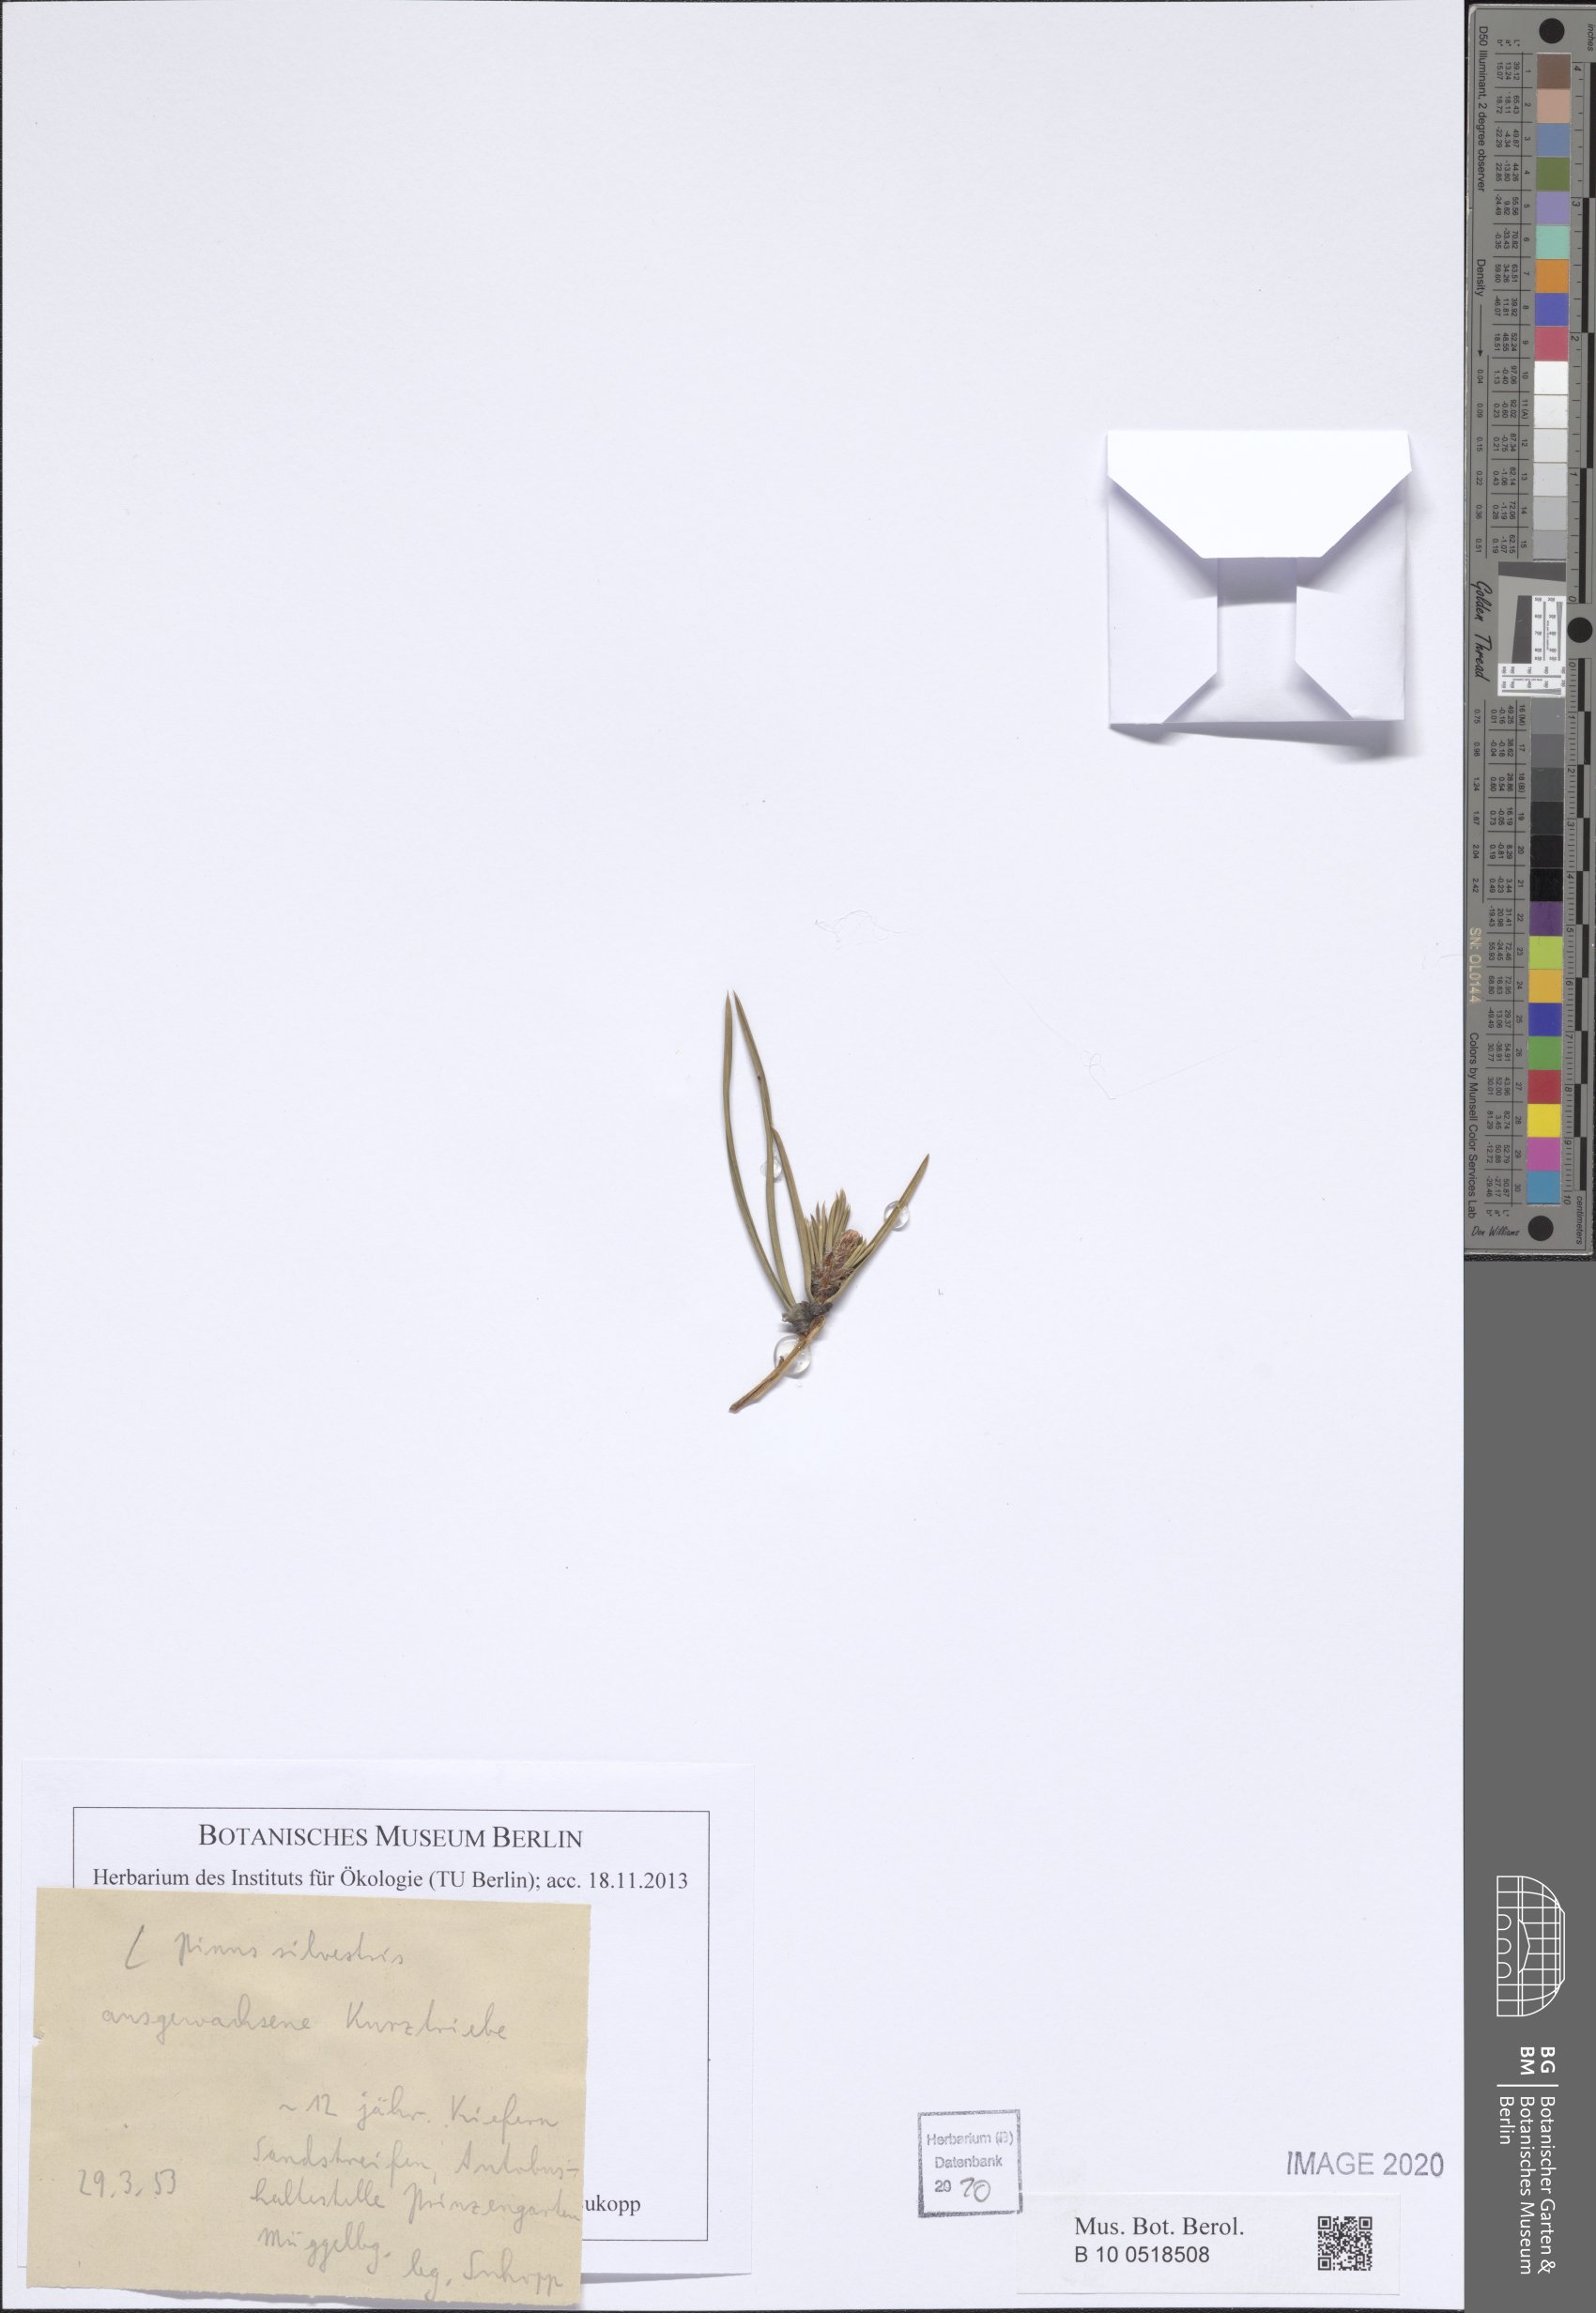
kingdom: Plantae
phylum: Tracheophyta
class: Pinopsida
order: Pinales
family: Pinaceae
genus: Pinus
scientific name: Pinus sylvestris
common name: Scots pine
